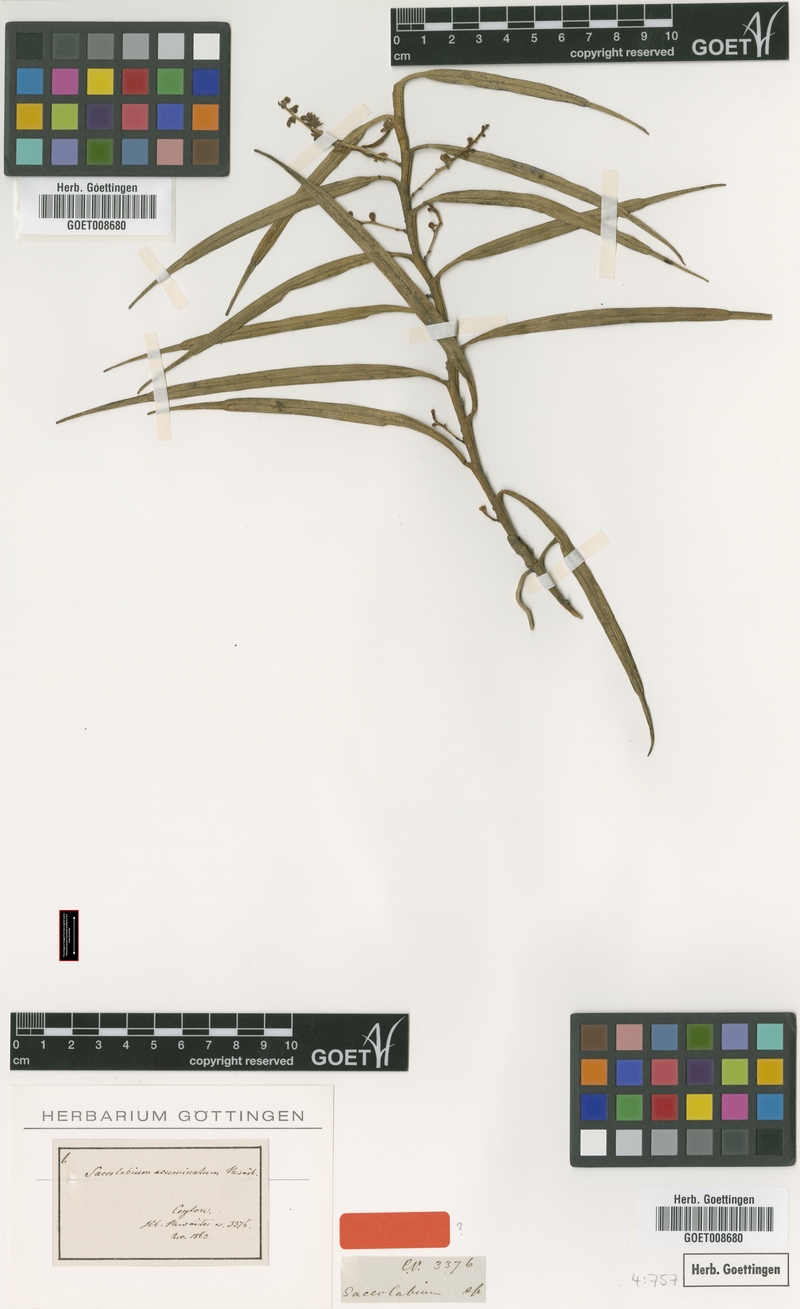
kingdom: Plantae
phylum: Tracheophyta
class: Liliopsida
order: Asparagales
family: Orchidaceae
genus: Cleisostoma
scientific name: Cleisostoma tenuifolium
